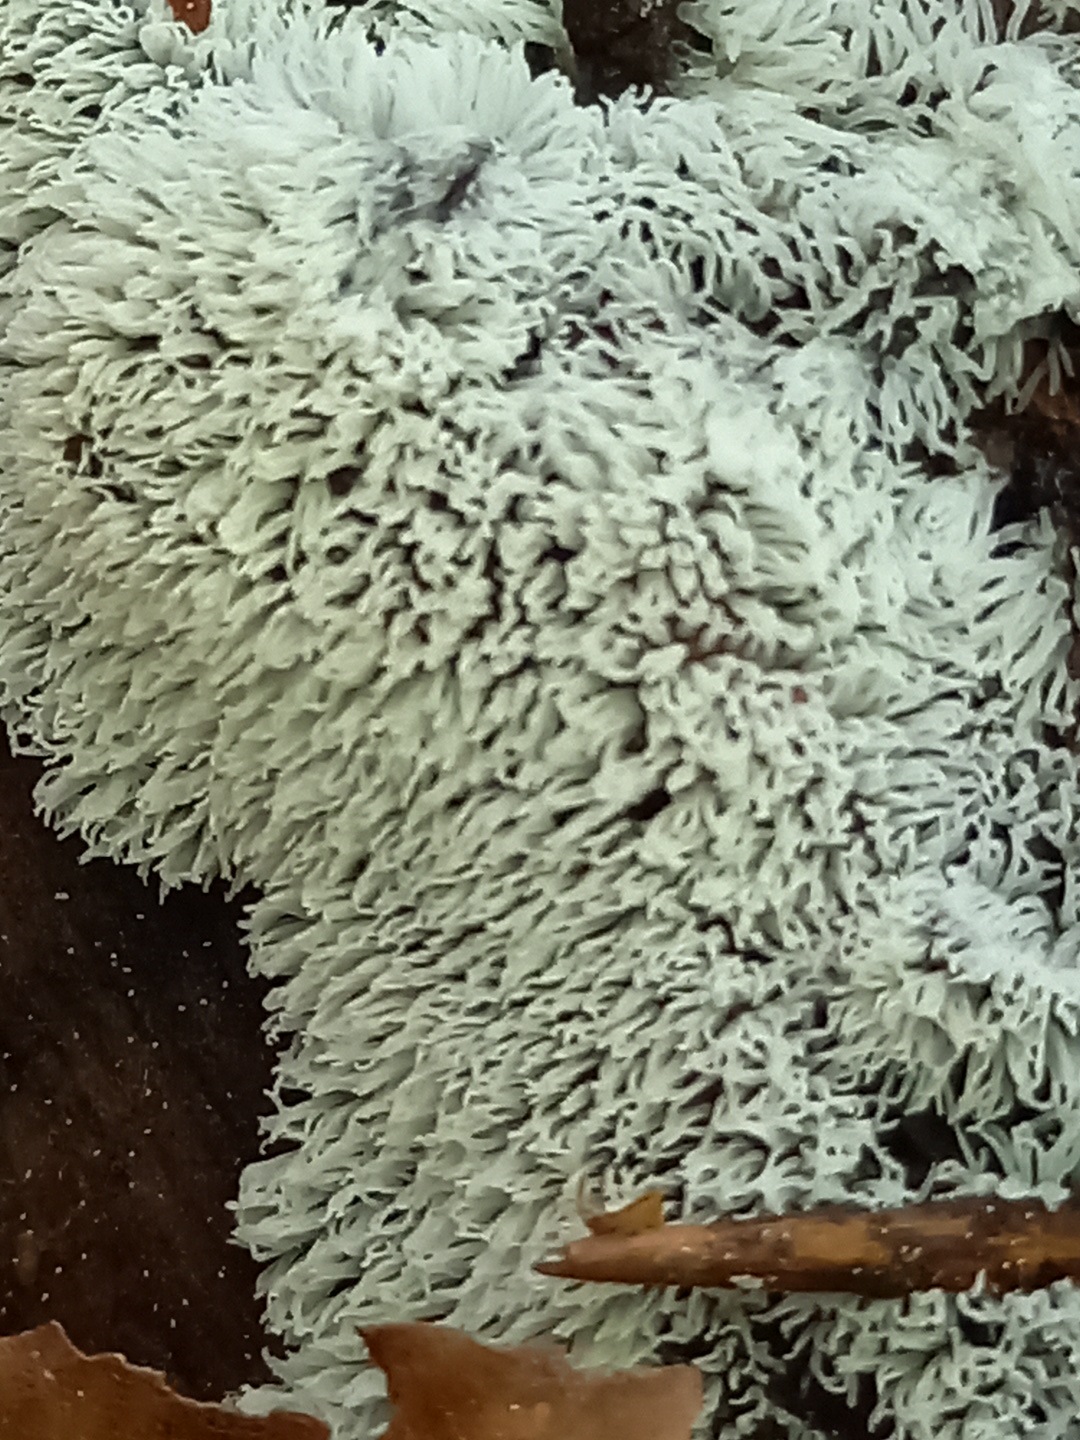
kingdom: Protozoa
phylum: Mycetozoa
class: Protosteliomycetes
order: Ceratiomyxales
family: Ceratiomyxaceae
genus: Ceratiomyxa
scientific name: Ceratiomyxa fruticulosa
